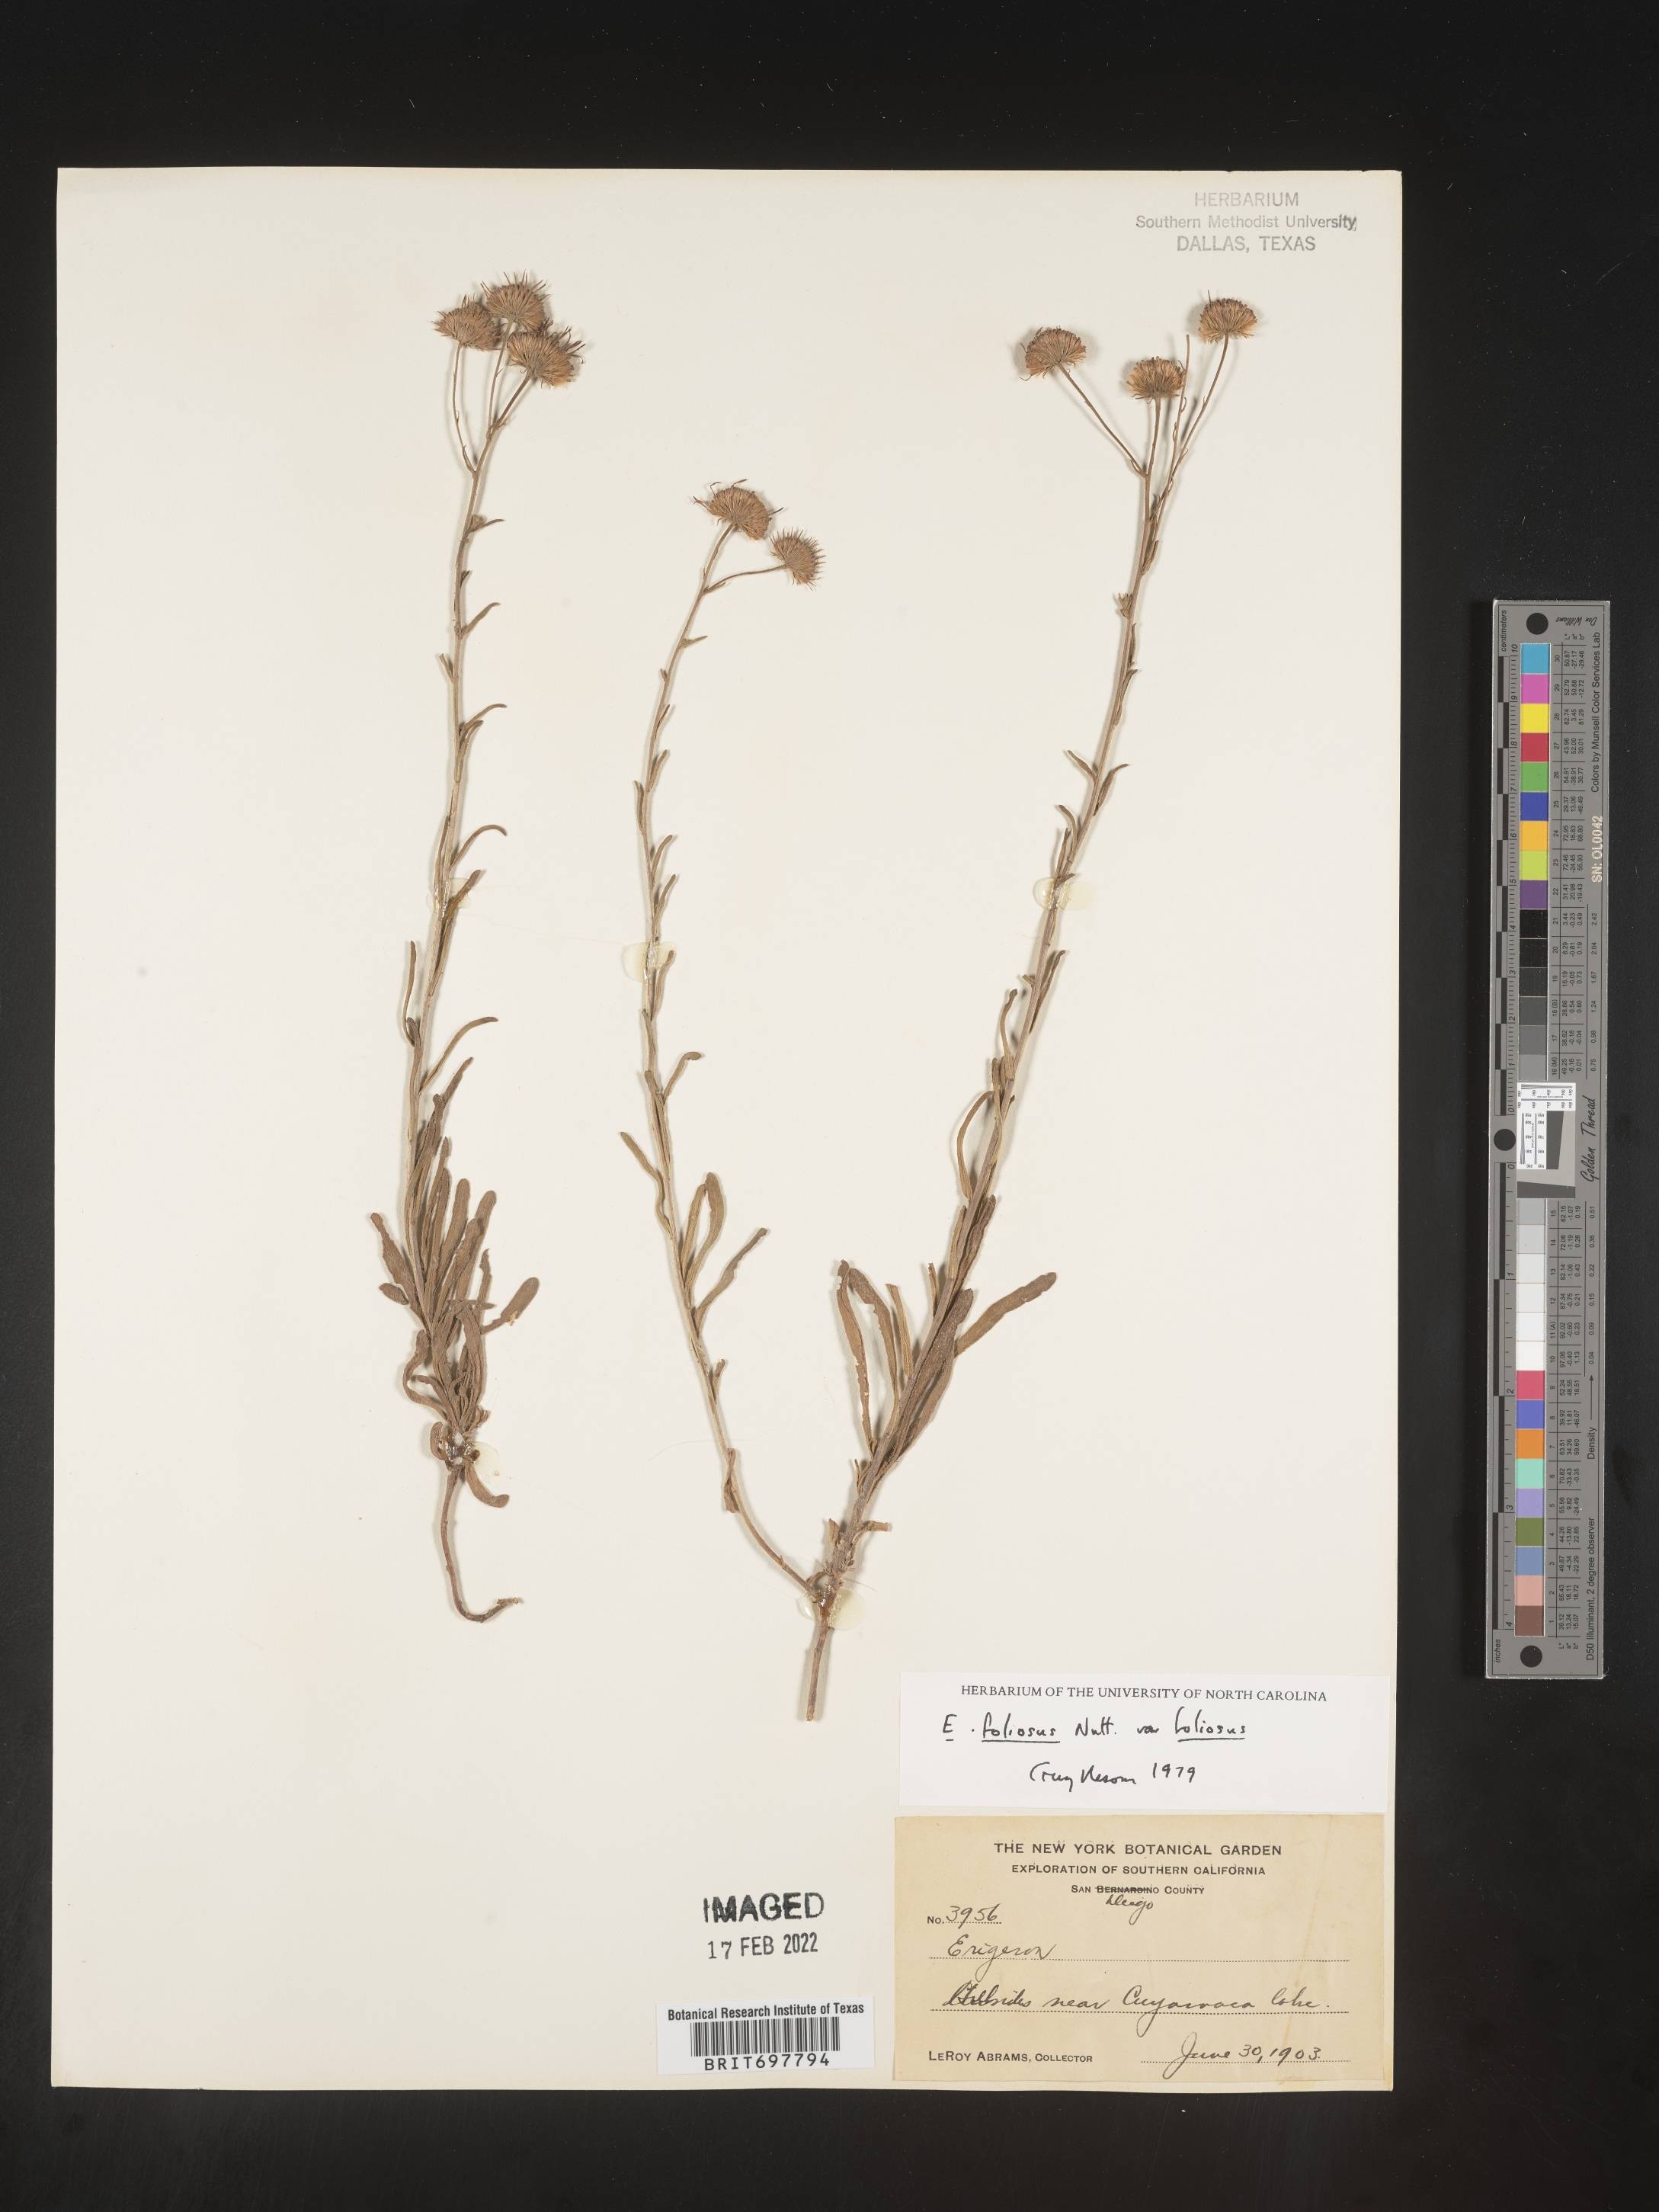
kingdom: Plantae
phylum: Tracheophyta
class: Magnoliopsida
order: Asterales
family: Asteraceae
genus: Erigeron
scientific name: Erigeron foliosus
